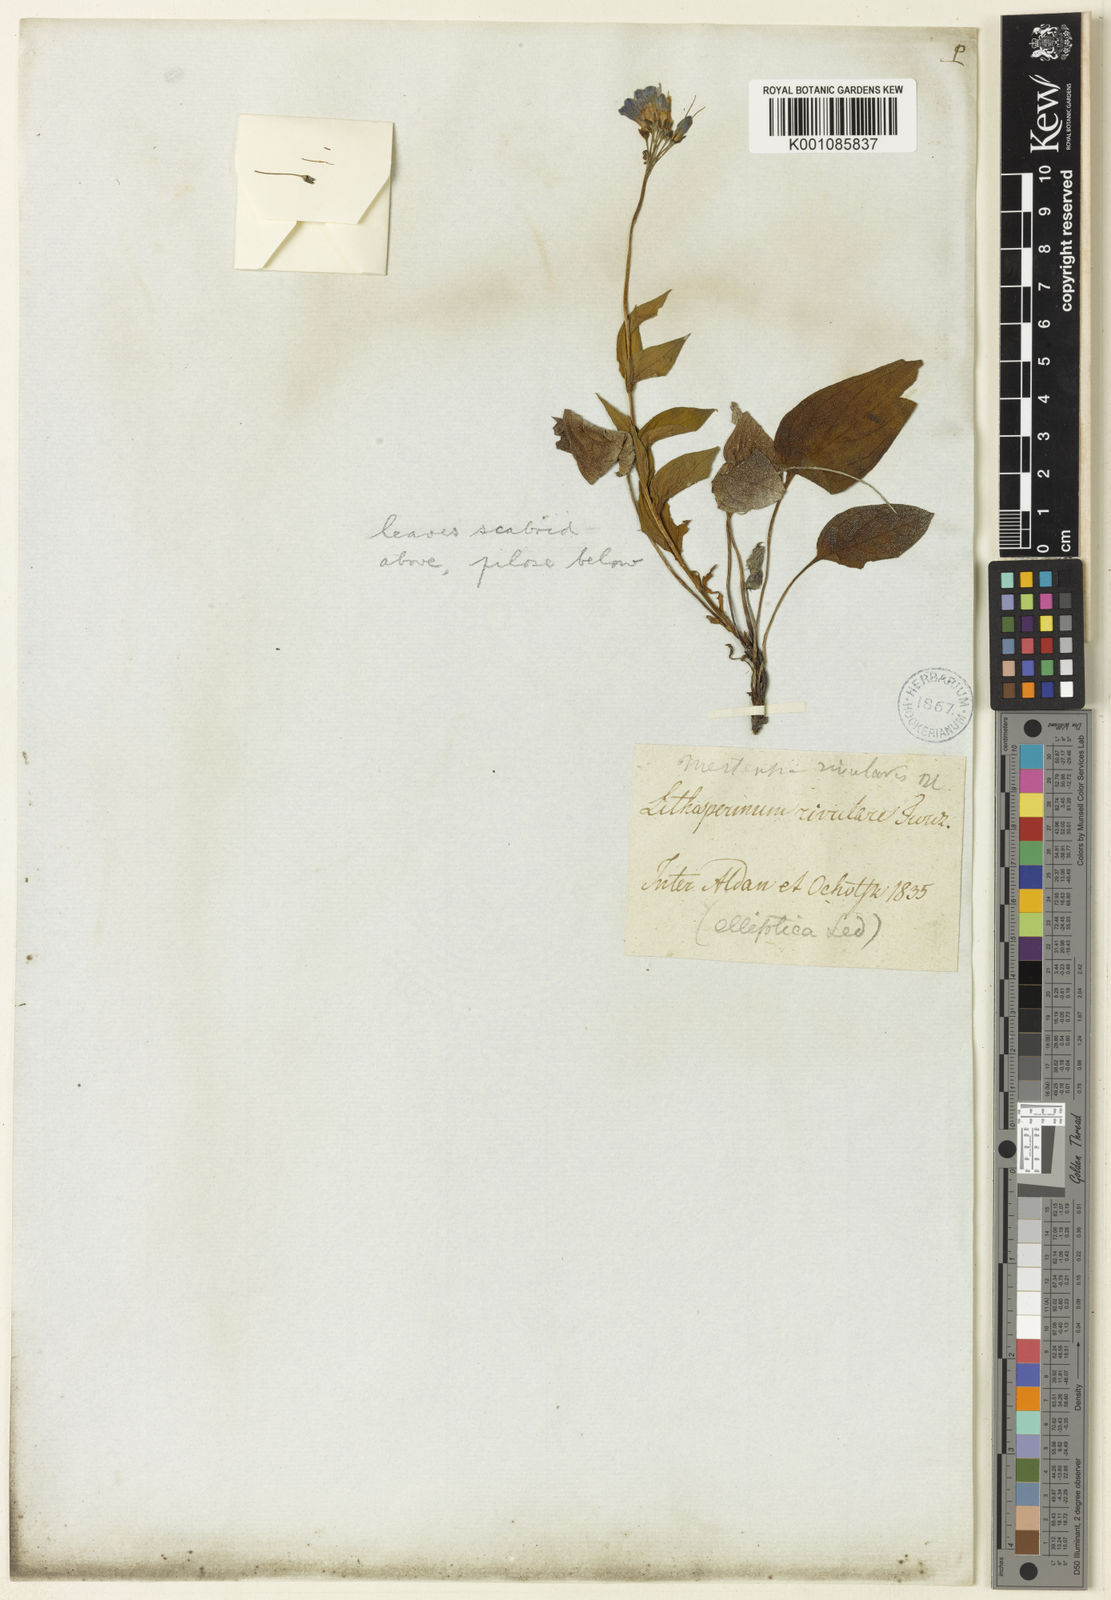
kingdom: Plantae
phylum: Tracheophyta
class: Magnoliopsida
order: Boraginales
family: Boraginaceae
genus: Mertensia
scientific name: Mertensia rivularis
